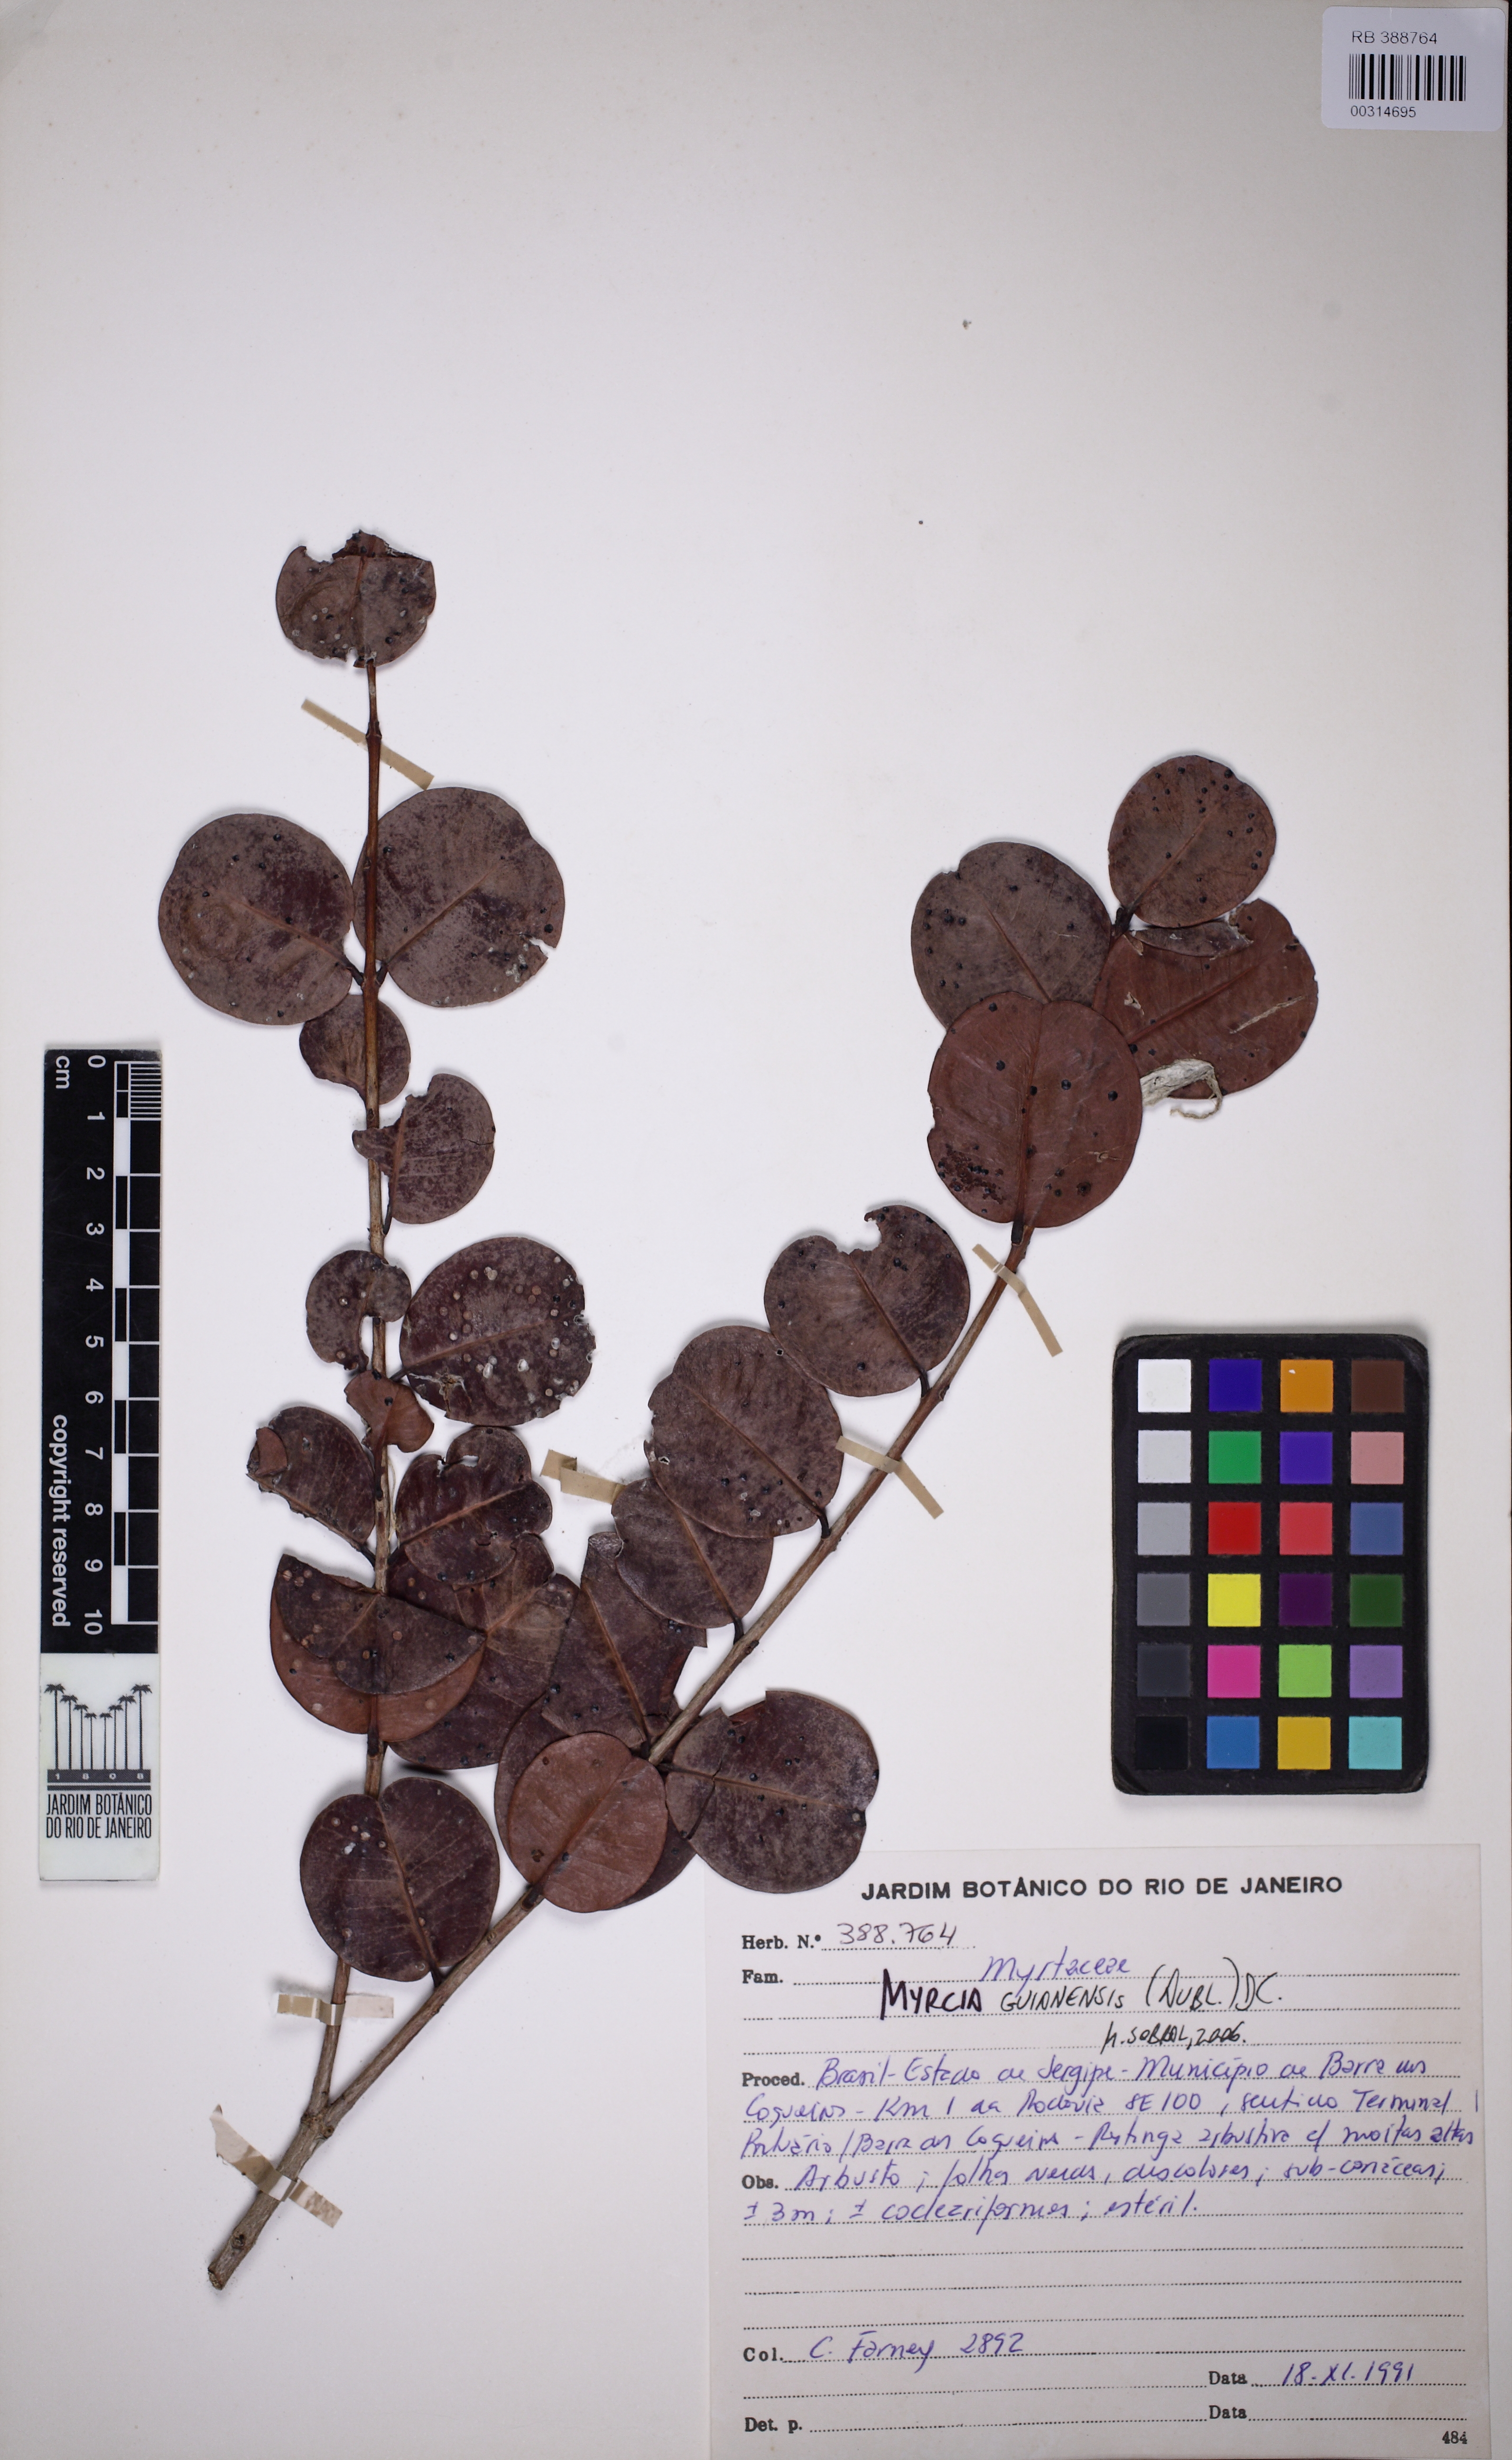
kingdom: Plantae
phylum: Tracheophyta
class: Magnoliopsida
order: Myrtales
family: Myrtaceae
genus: Myrcia
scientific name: Myrcia guianensis
